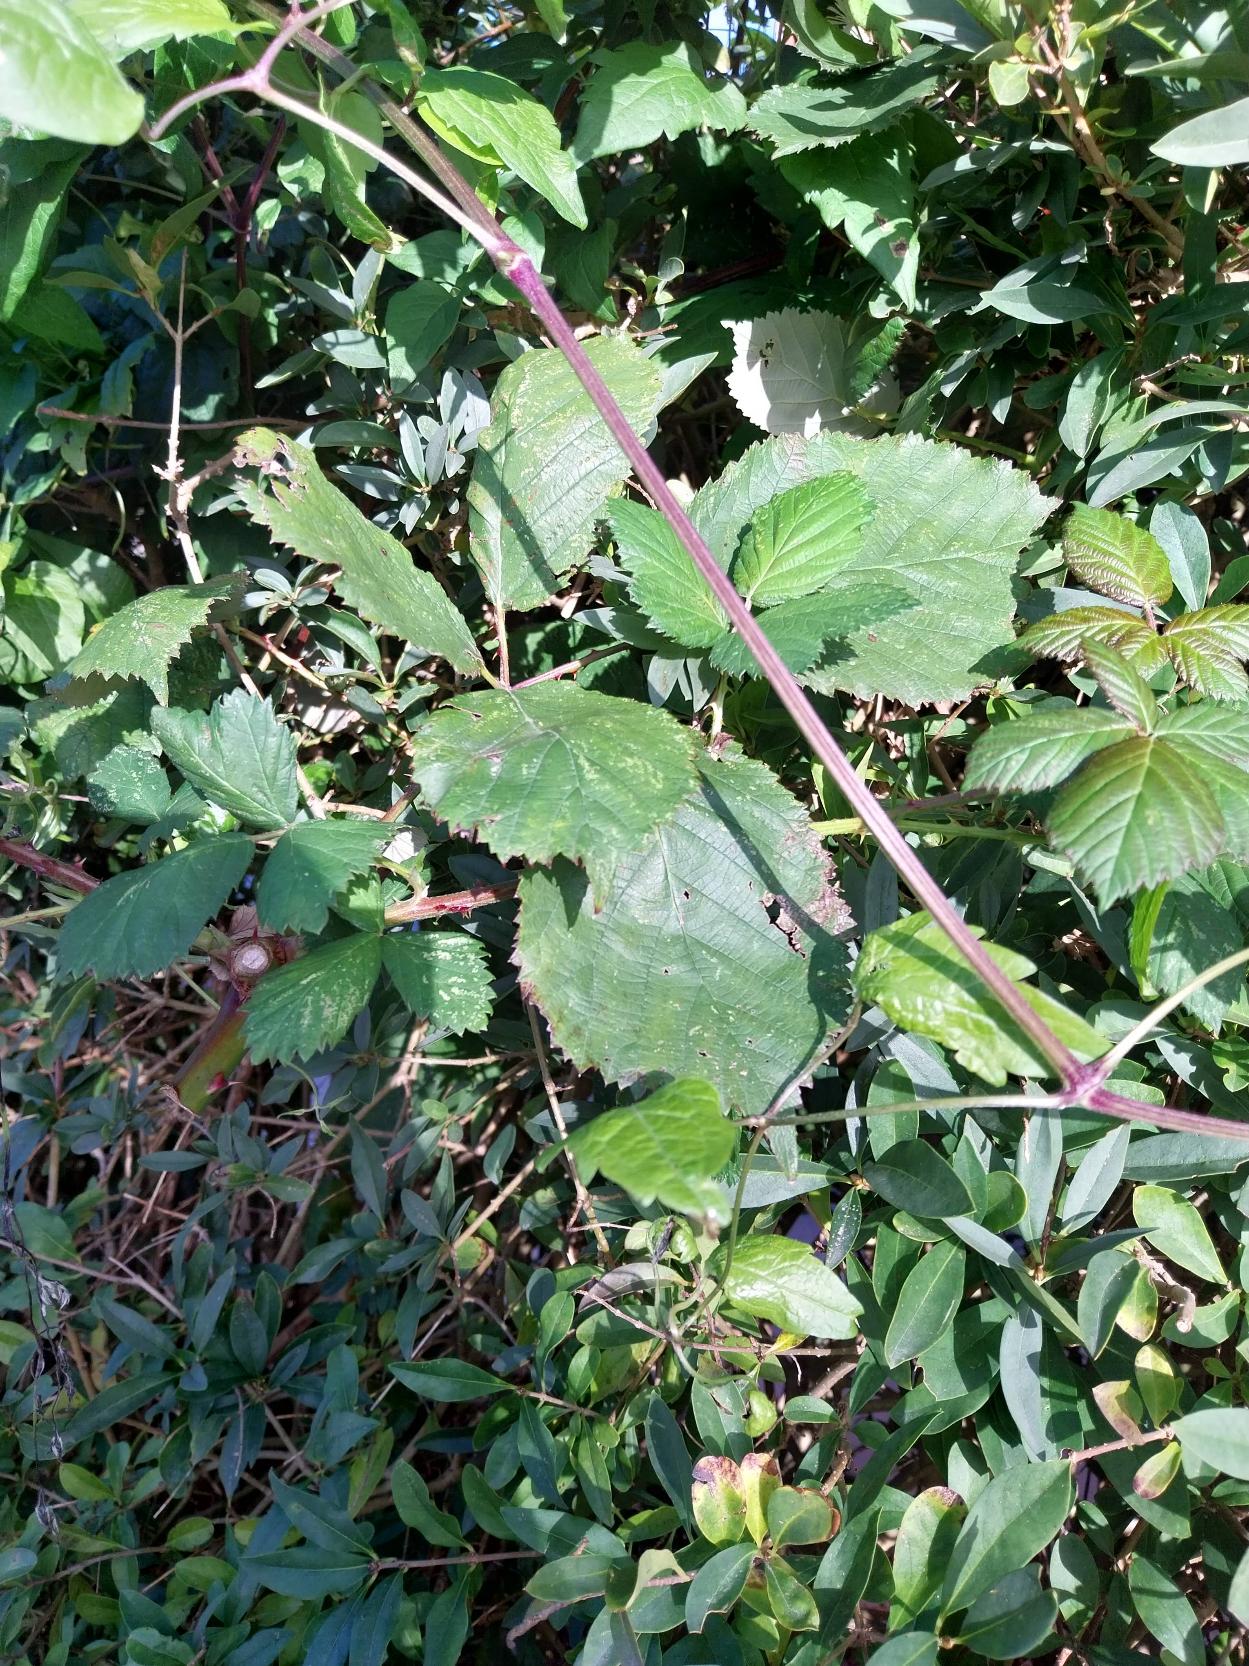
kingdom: Plantae
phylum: Tracheophyta
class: Magnoliopsida
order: Rosales
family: Rosaceae
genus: Rubus
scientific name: Rubus armeniacus
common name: Armensk brombær
